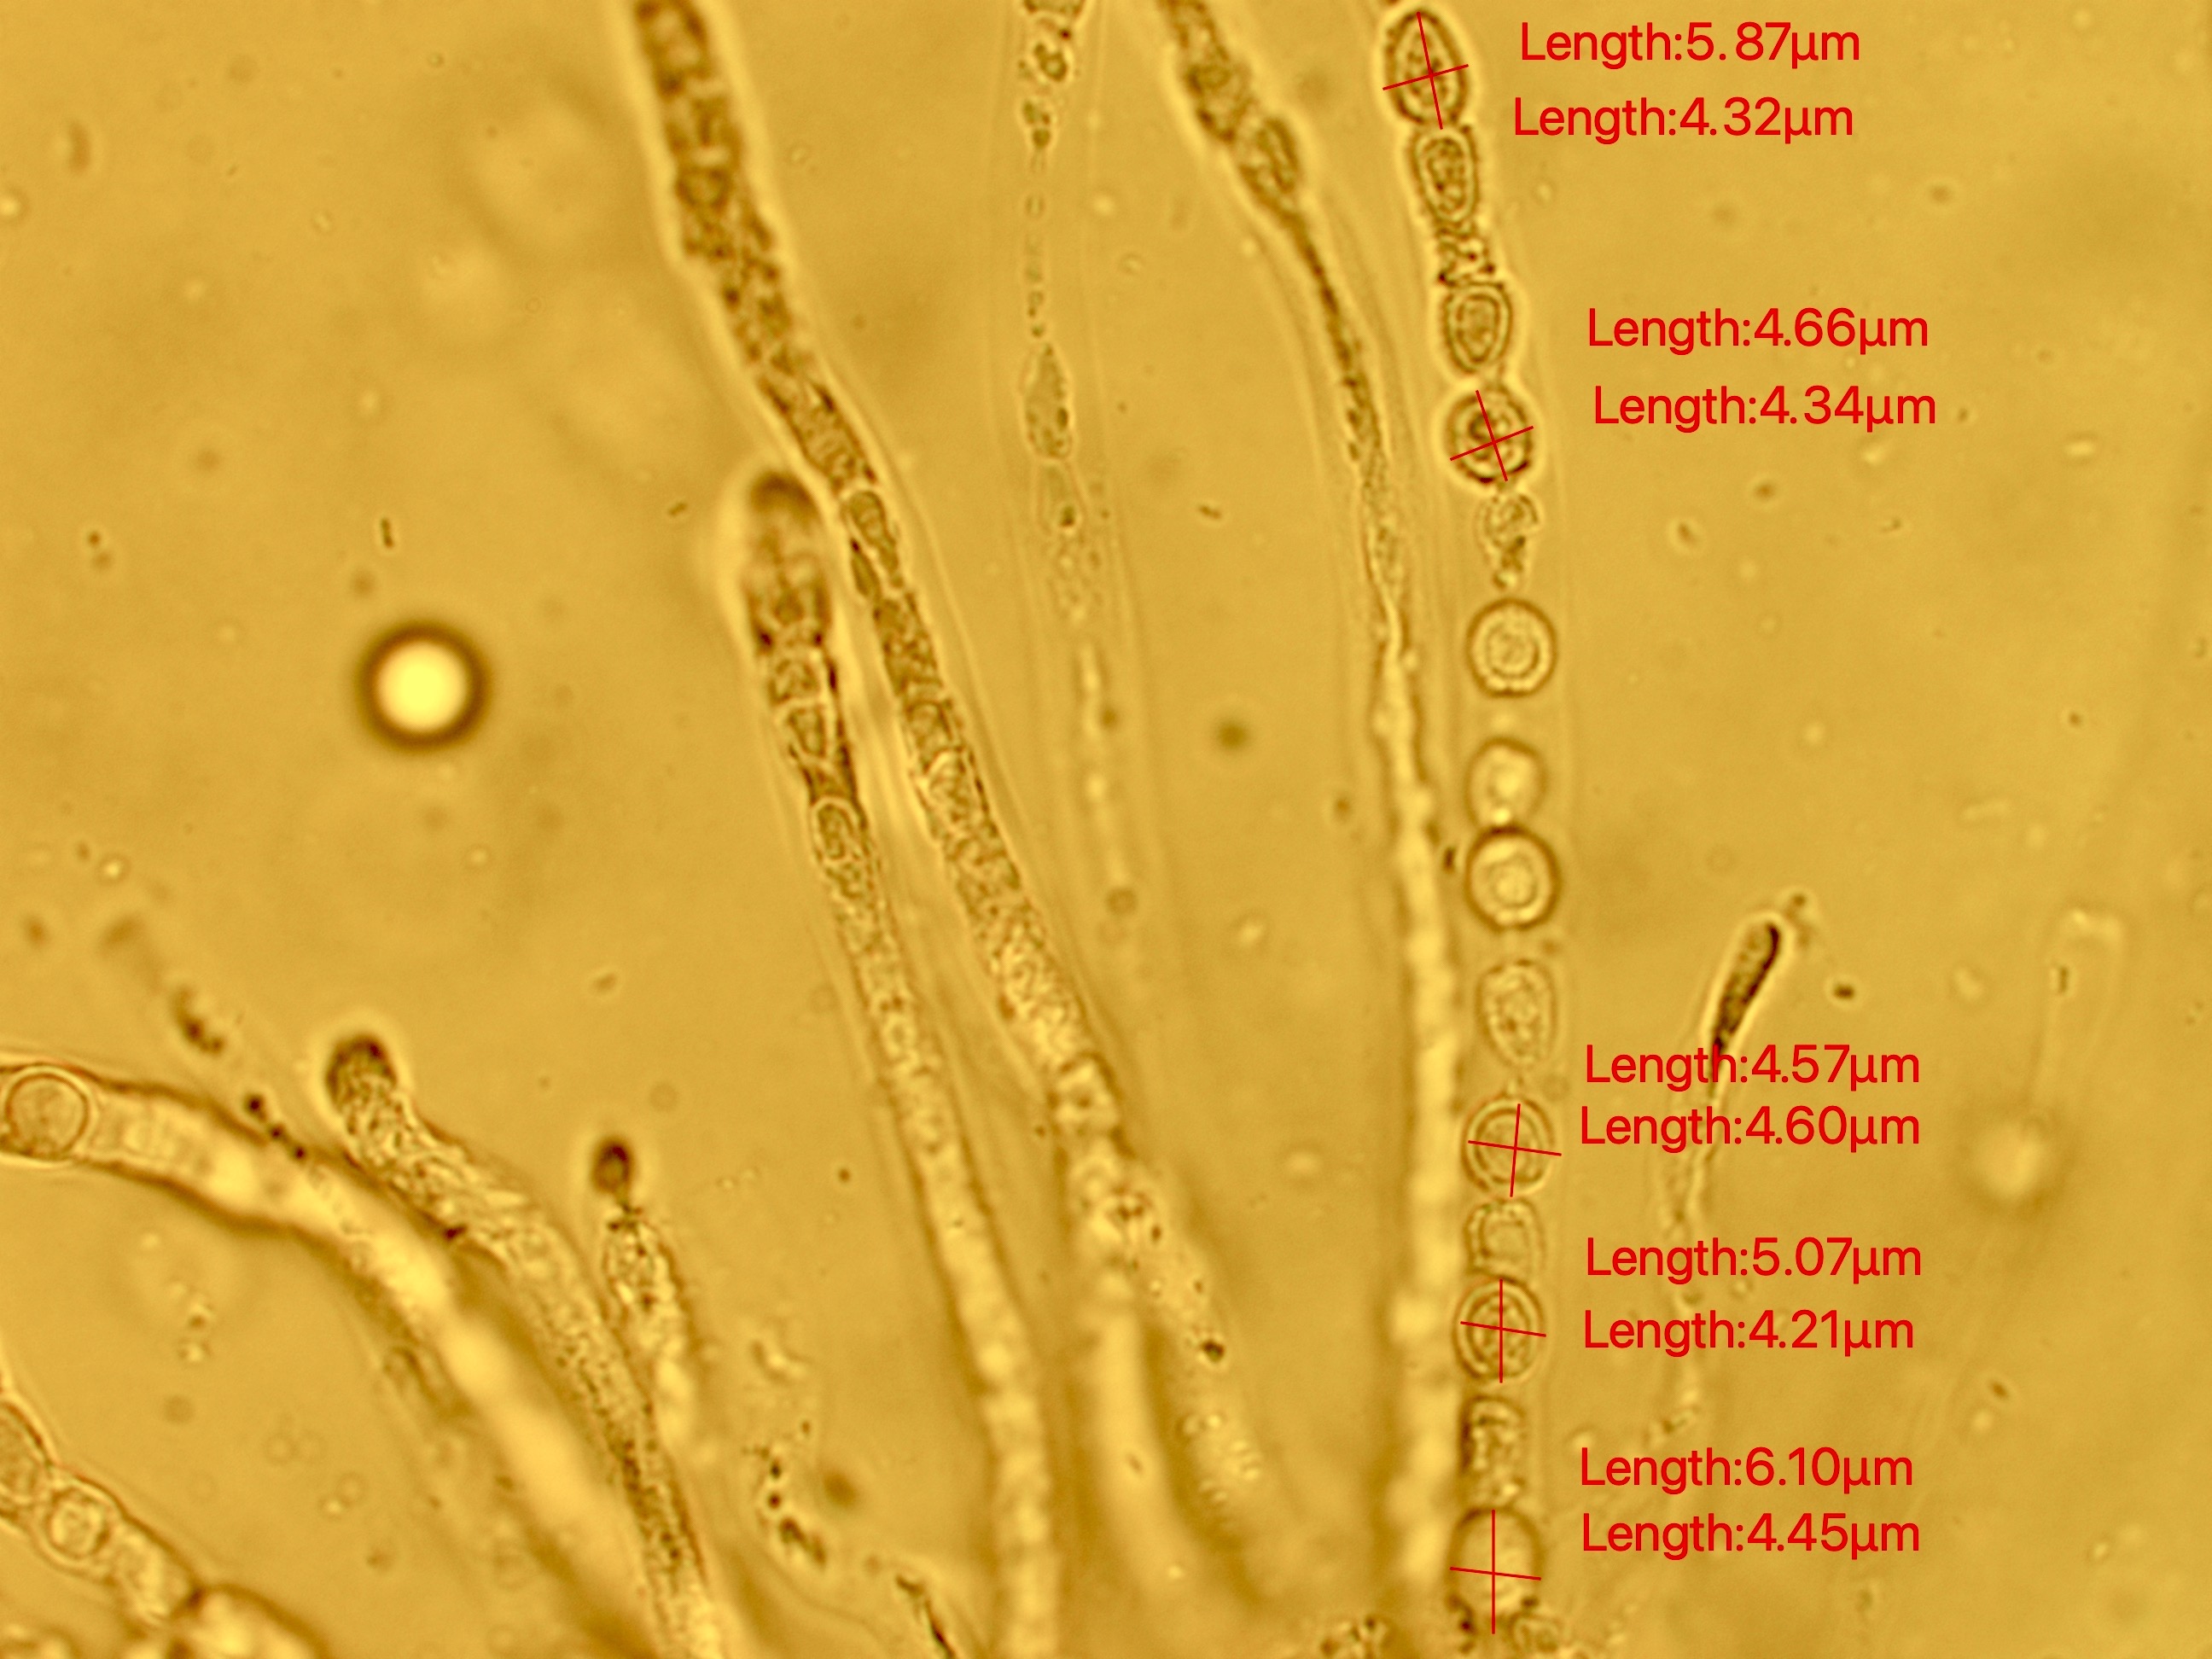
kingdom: Fungi
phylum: Ascomycota
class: Sordariomycetes
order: Hypocreales
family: Hypocreaceae
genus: Trichoderma
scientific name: Trichoderma europaeum
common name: rosabrun kødkerne
